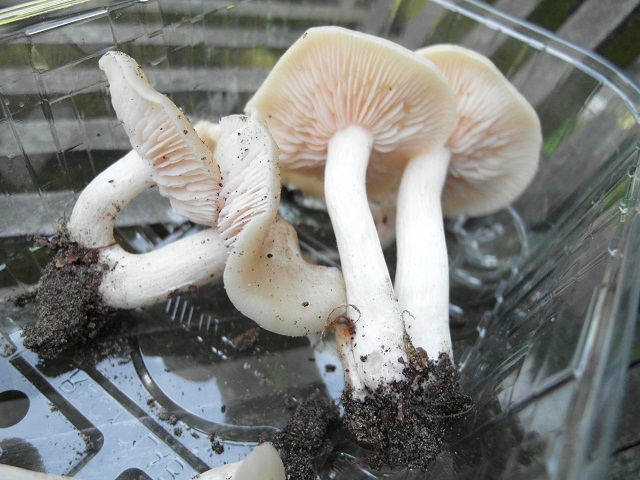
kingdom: Fungi
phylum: Basidiomycota
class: Agaricomycetes
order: Agaricales
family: Entolomataceae
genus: Entoloma
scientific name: Entoloma sepium
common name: slåen-rødblad
